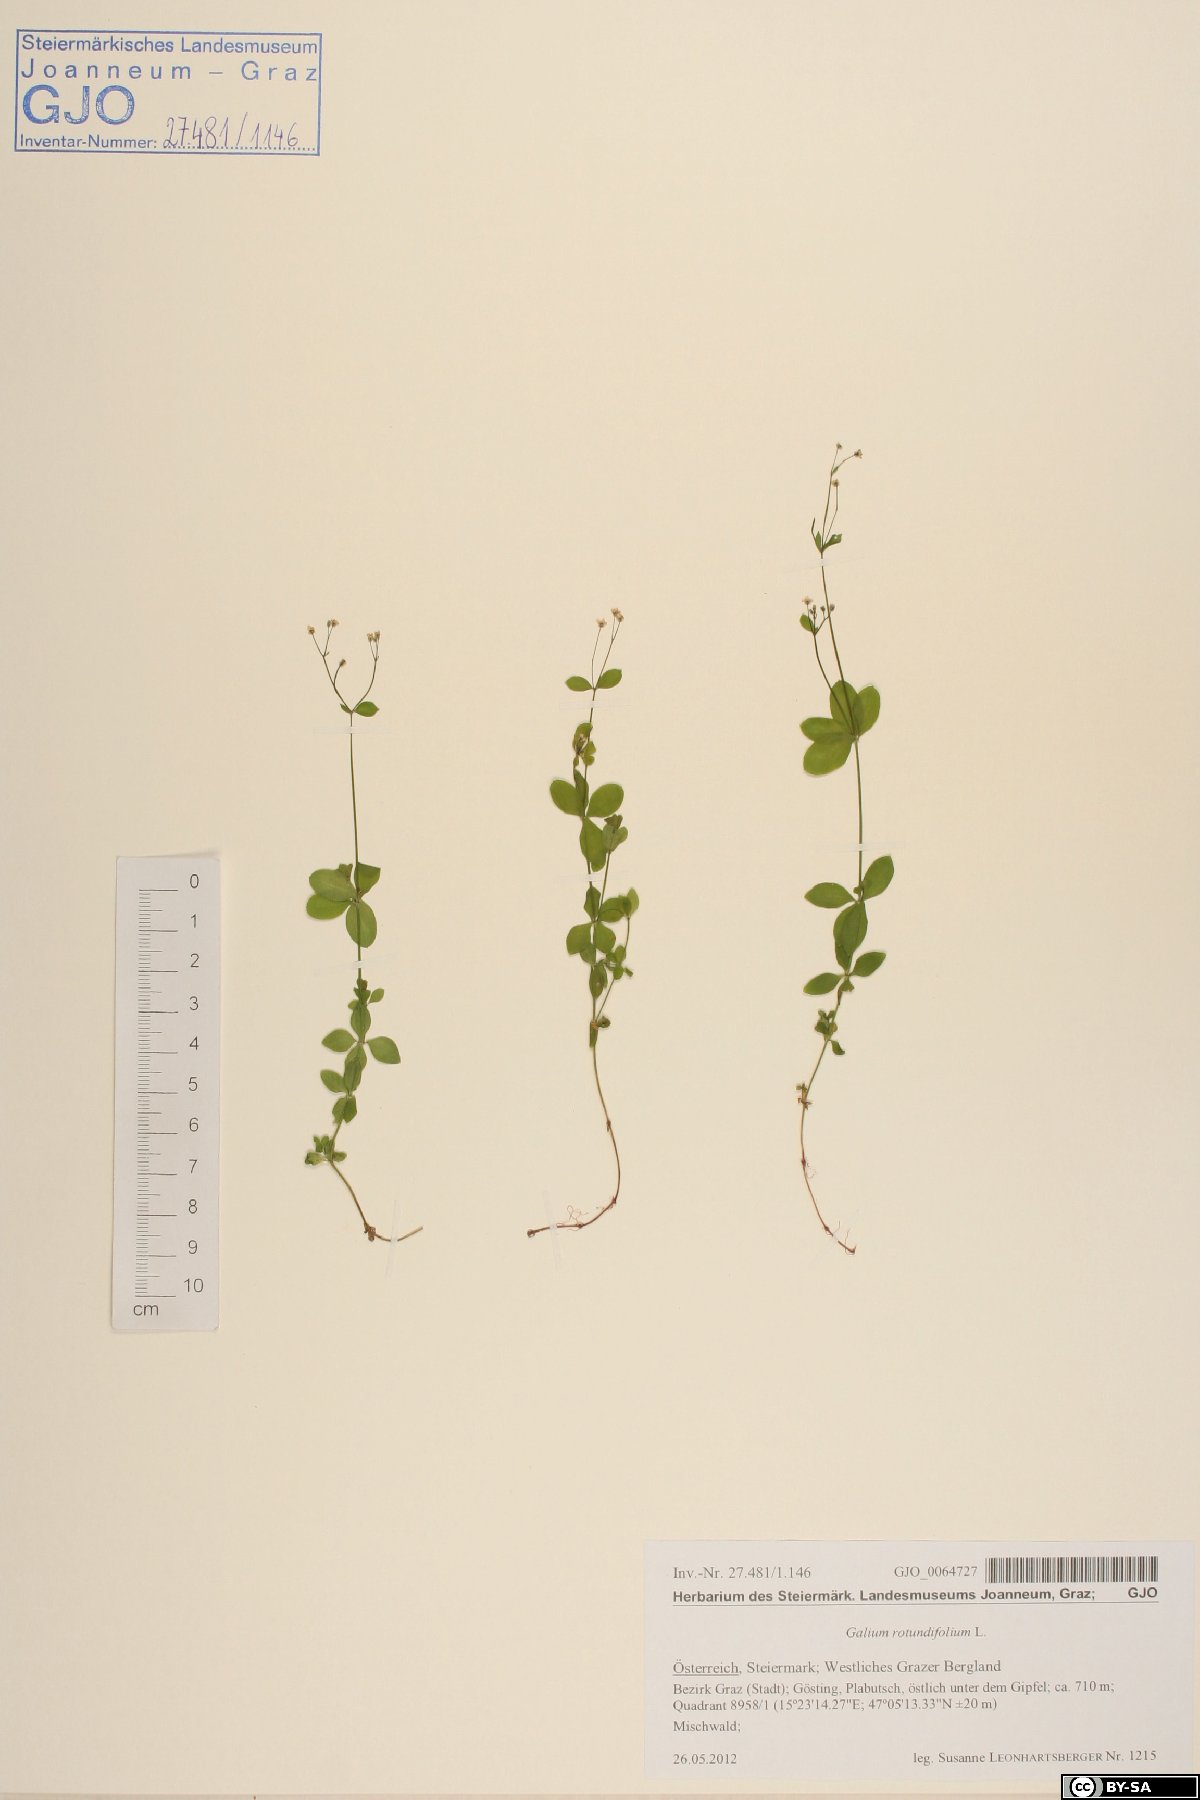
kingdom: Plantae
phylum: Tracheophyta
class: Magnoliopsida
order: Gentianales
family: Rubiaceae
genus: Galium
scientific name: Galium rotundifolium
